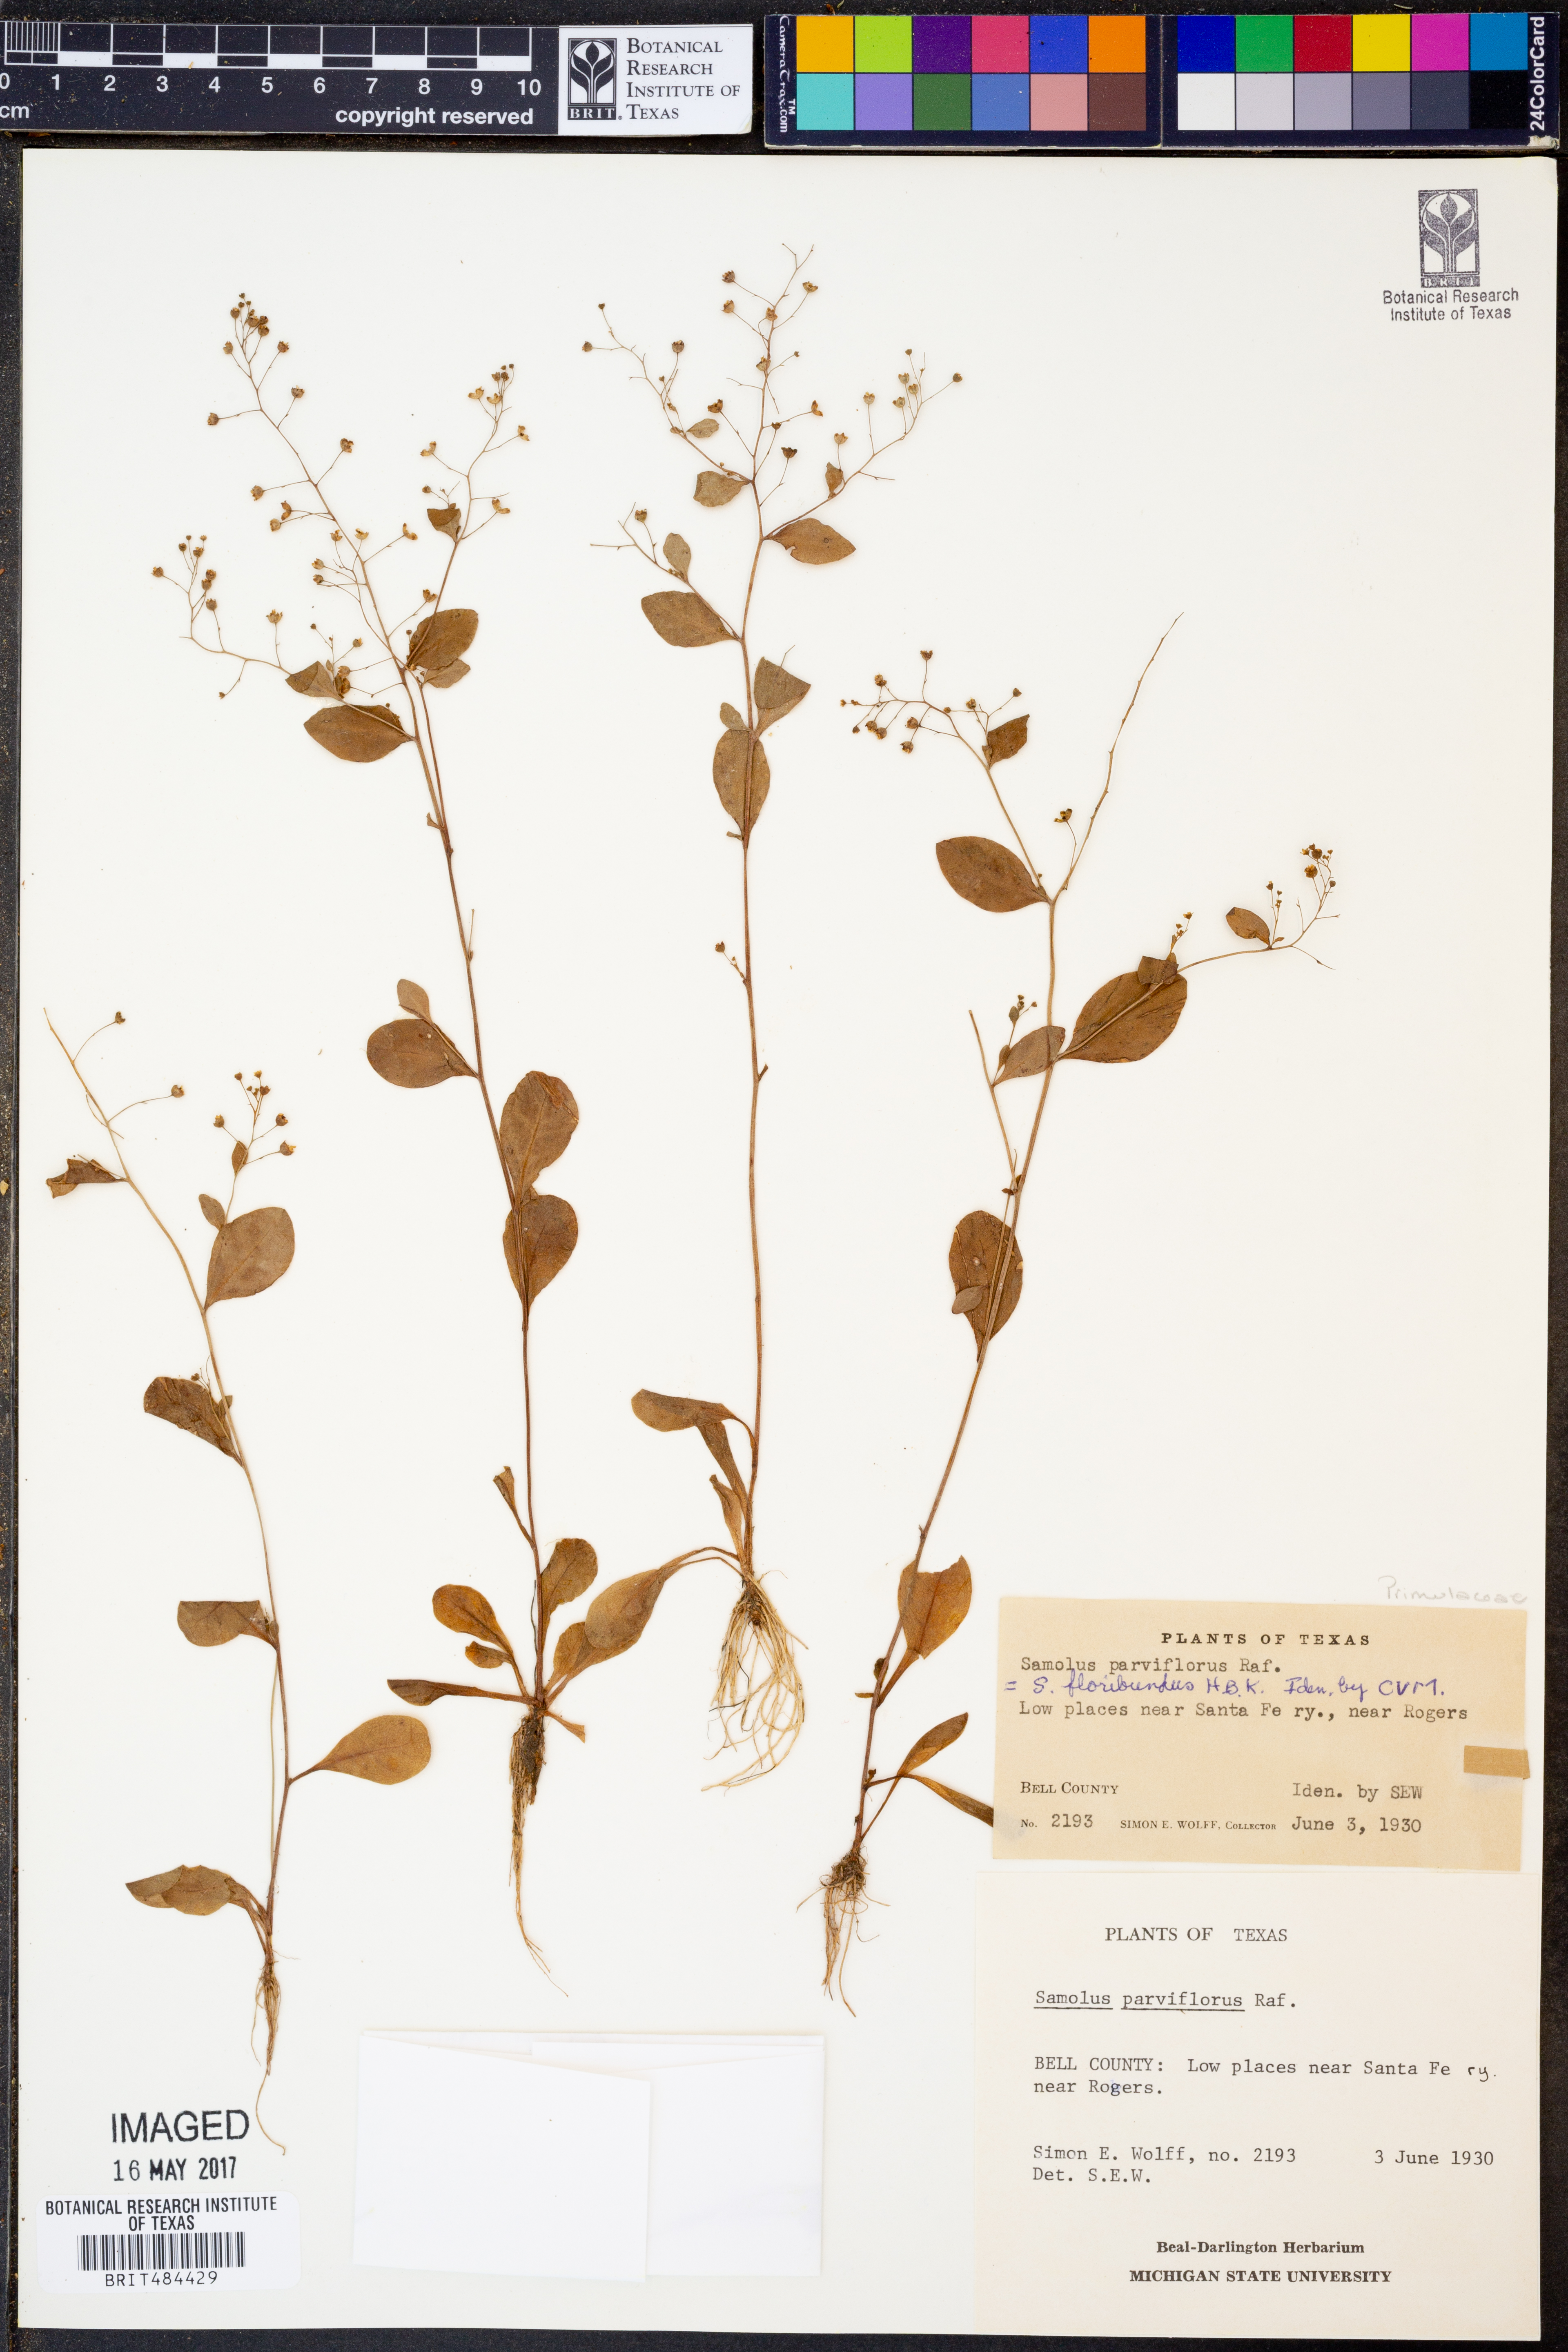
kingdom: Plantae
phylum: Tracheophyta
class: Magnoliopsida
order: Ericales
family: Primulaceae
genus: Samolus
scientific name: Samolus parviflorus
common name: False water pimpernel
